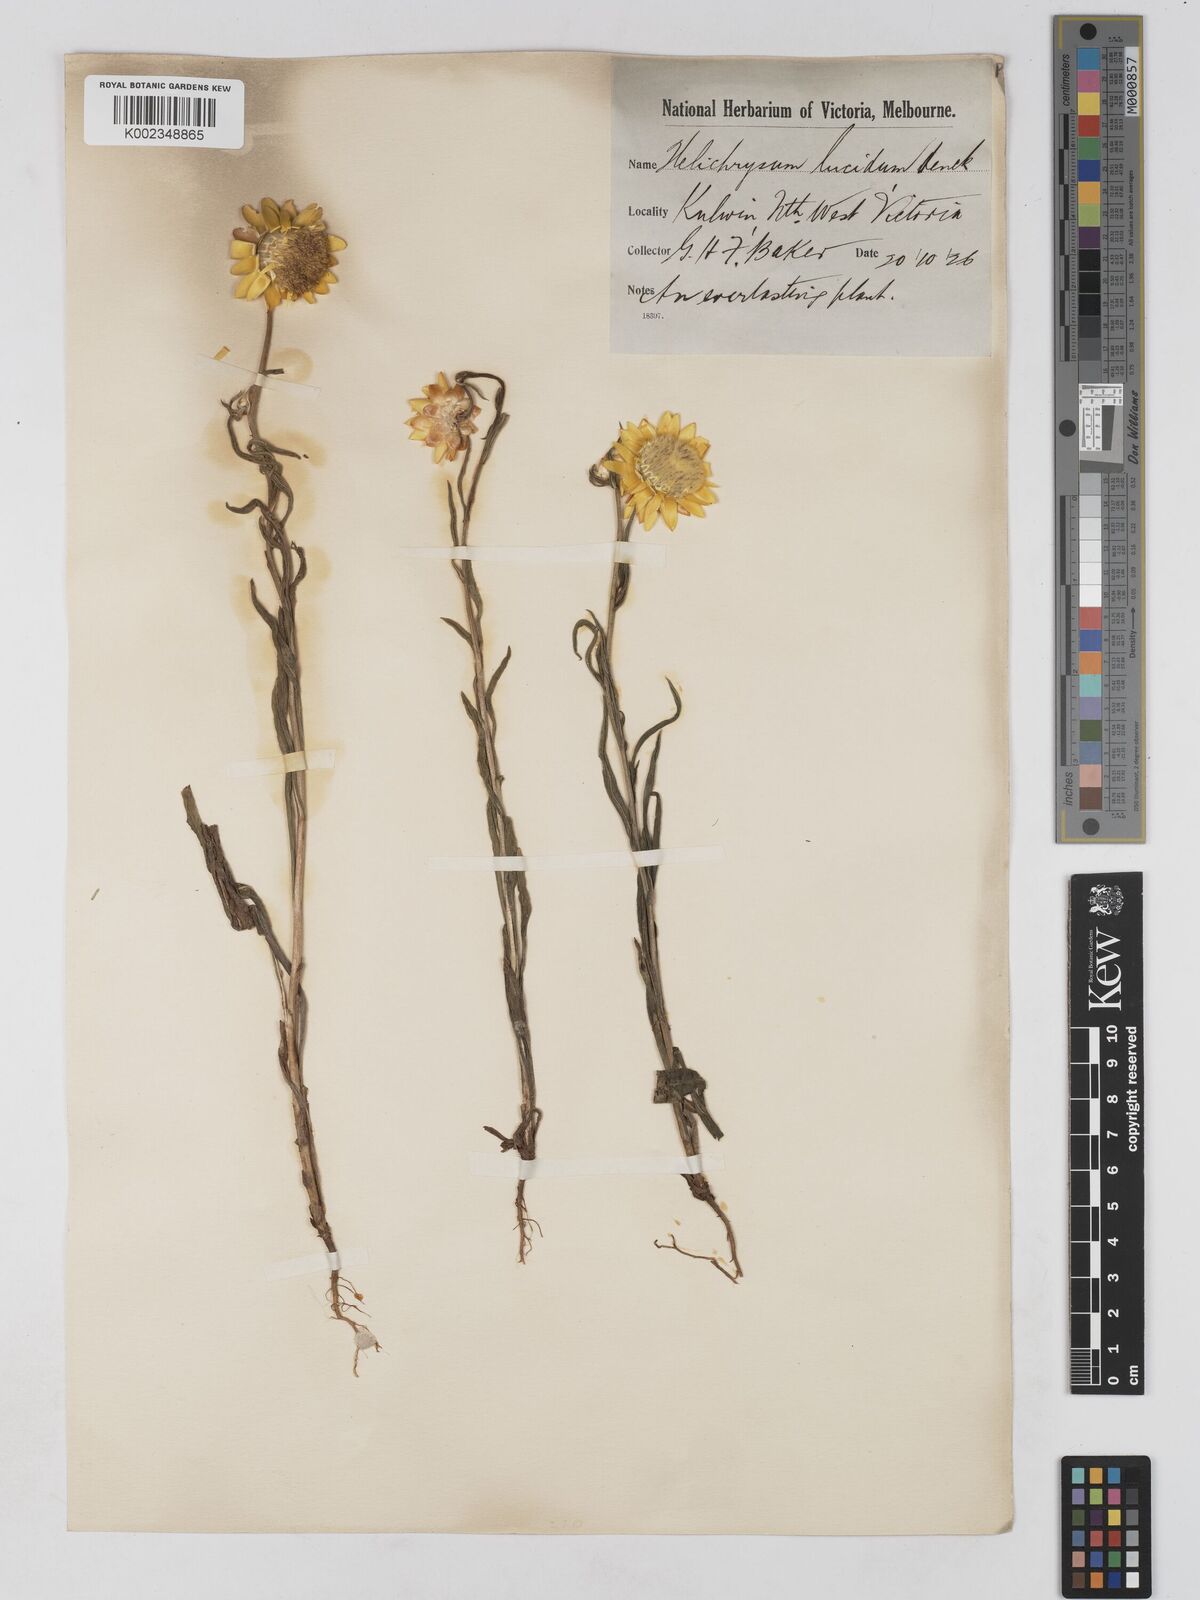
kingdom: Plantae
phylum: Tracheophyta
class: Magnoliopsida
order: Asterales
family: Asteraceae
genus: Xerochrysum
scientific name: Xerochrysum bracteatum
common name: Bracted strawflower
